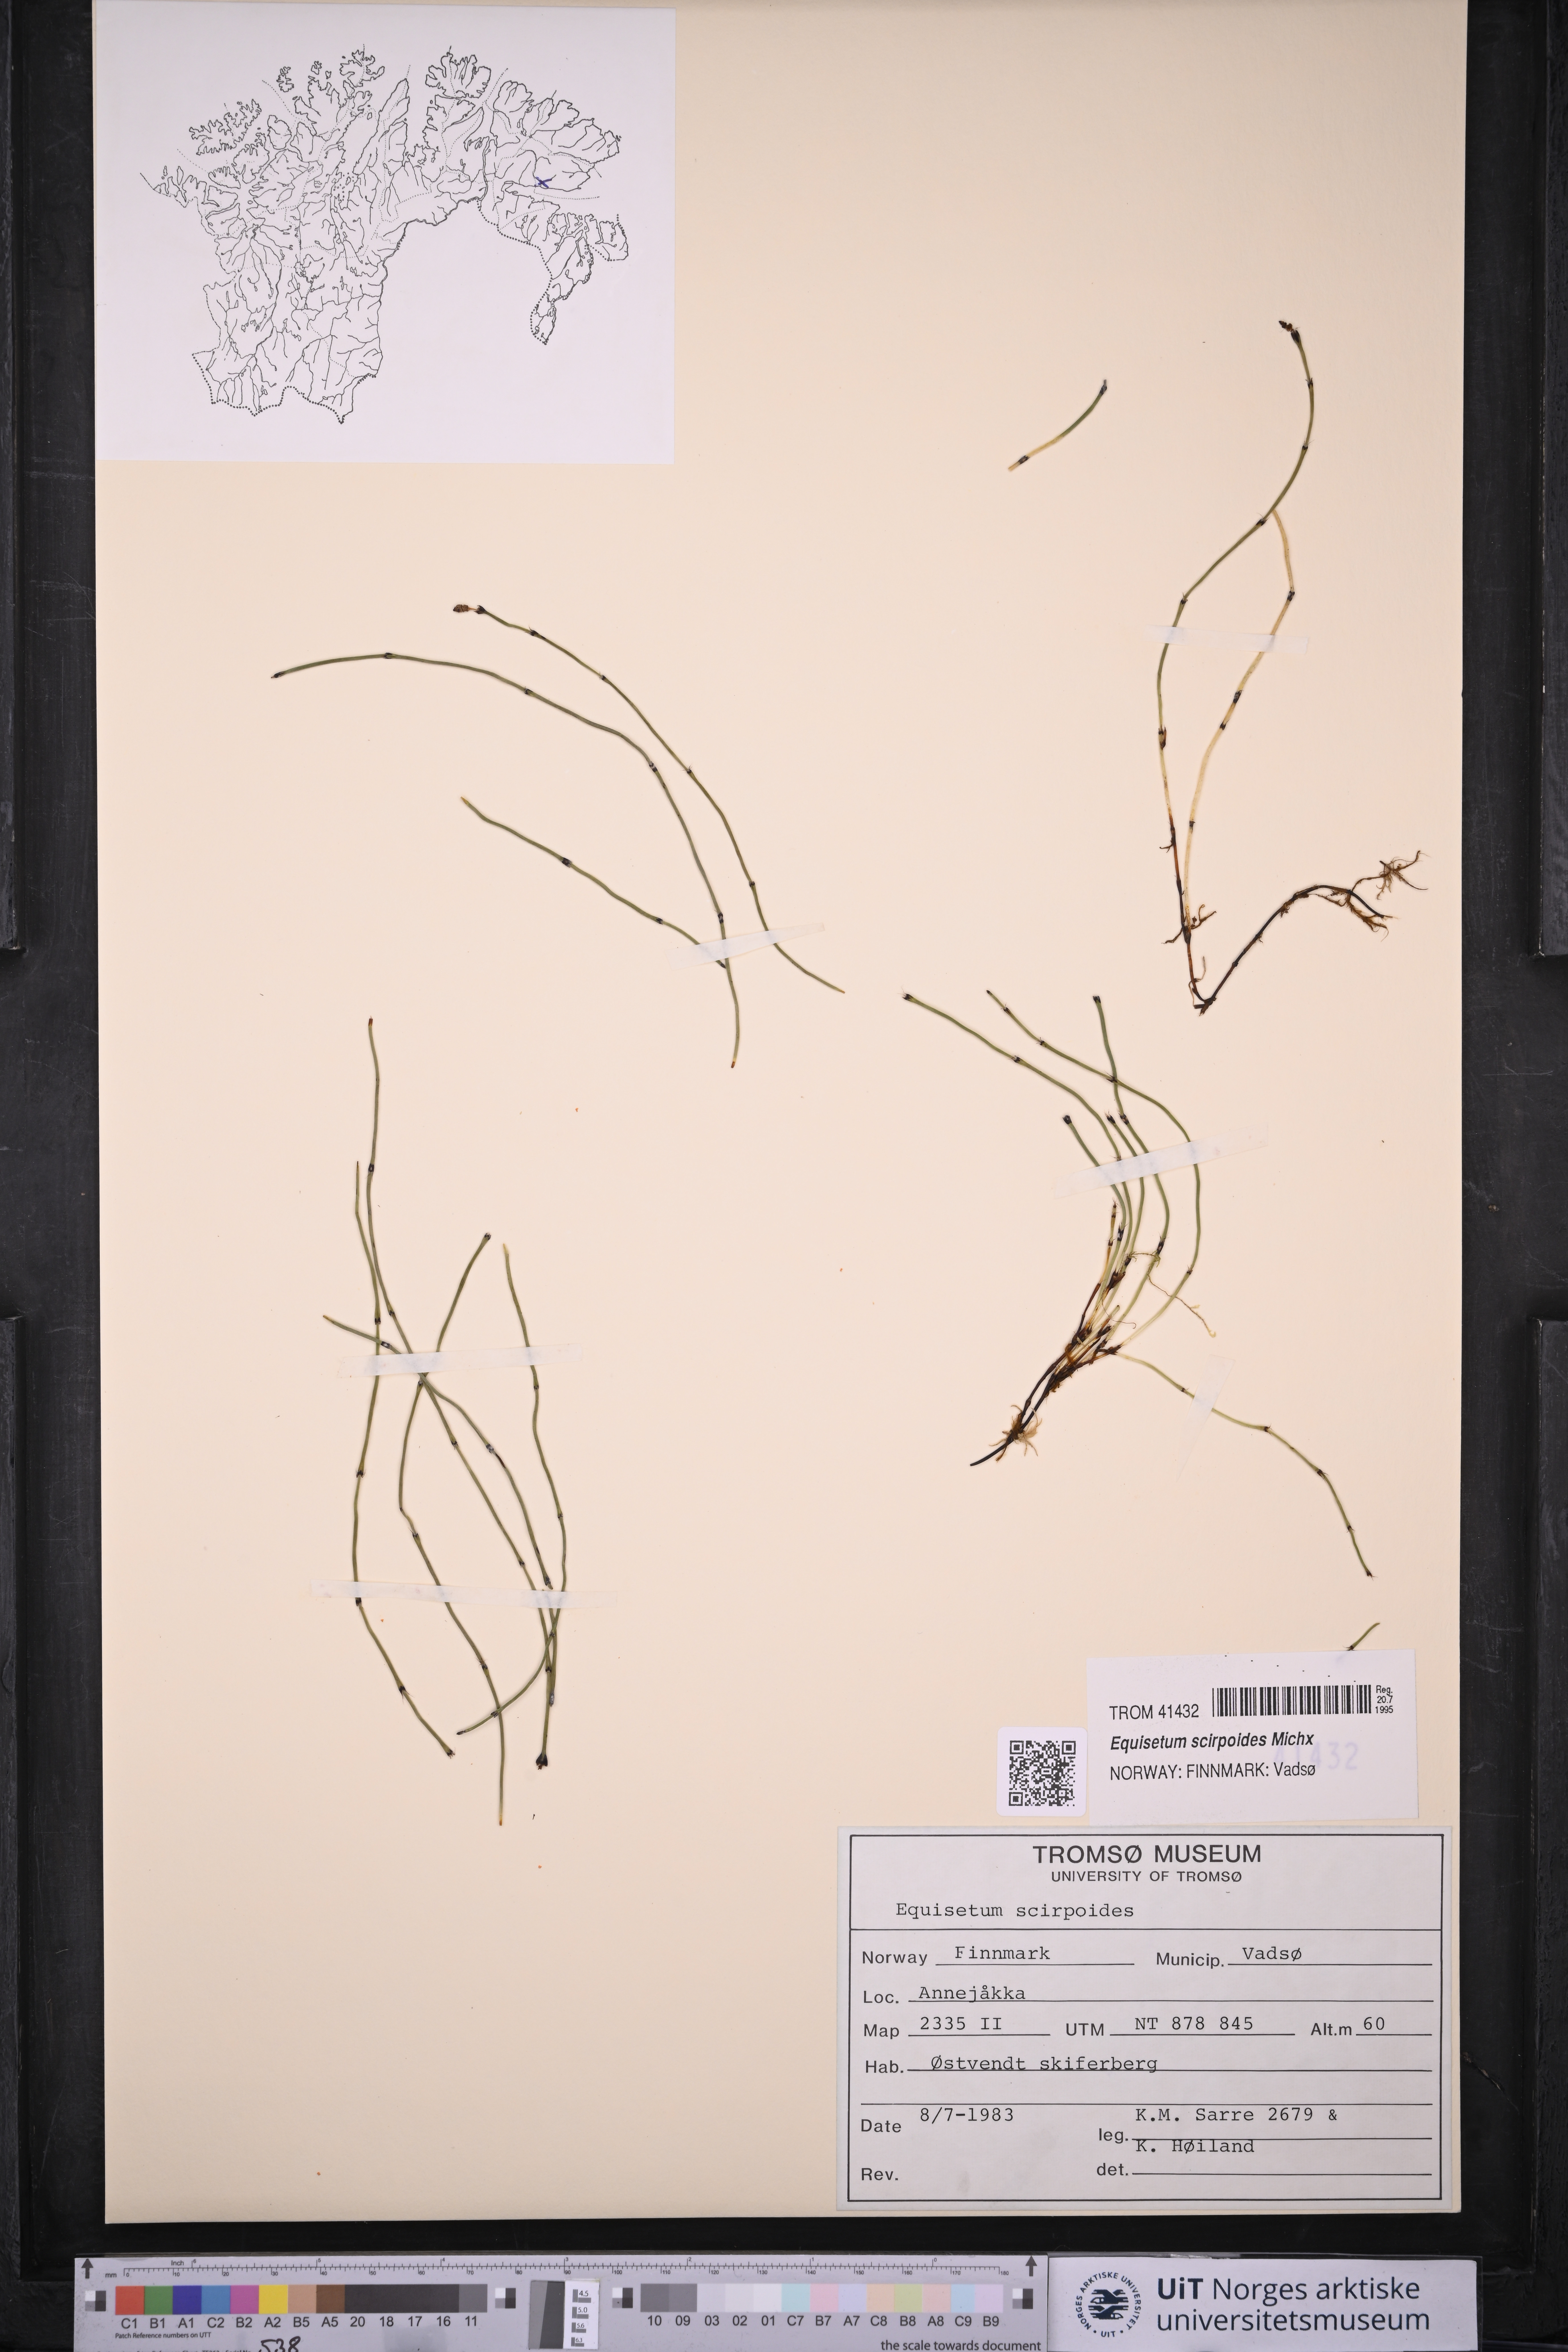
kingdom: Plantae
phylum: Tracheophyta
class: Polypodiopsida
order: Equisetales
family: Equisetaceae
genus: Equisetum
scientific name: Equisetum scirpoides
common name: Delicate horsetail
